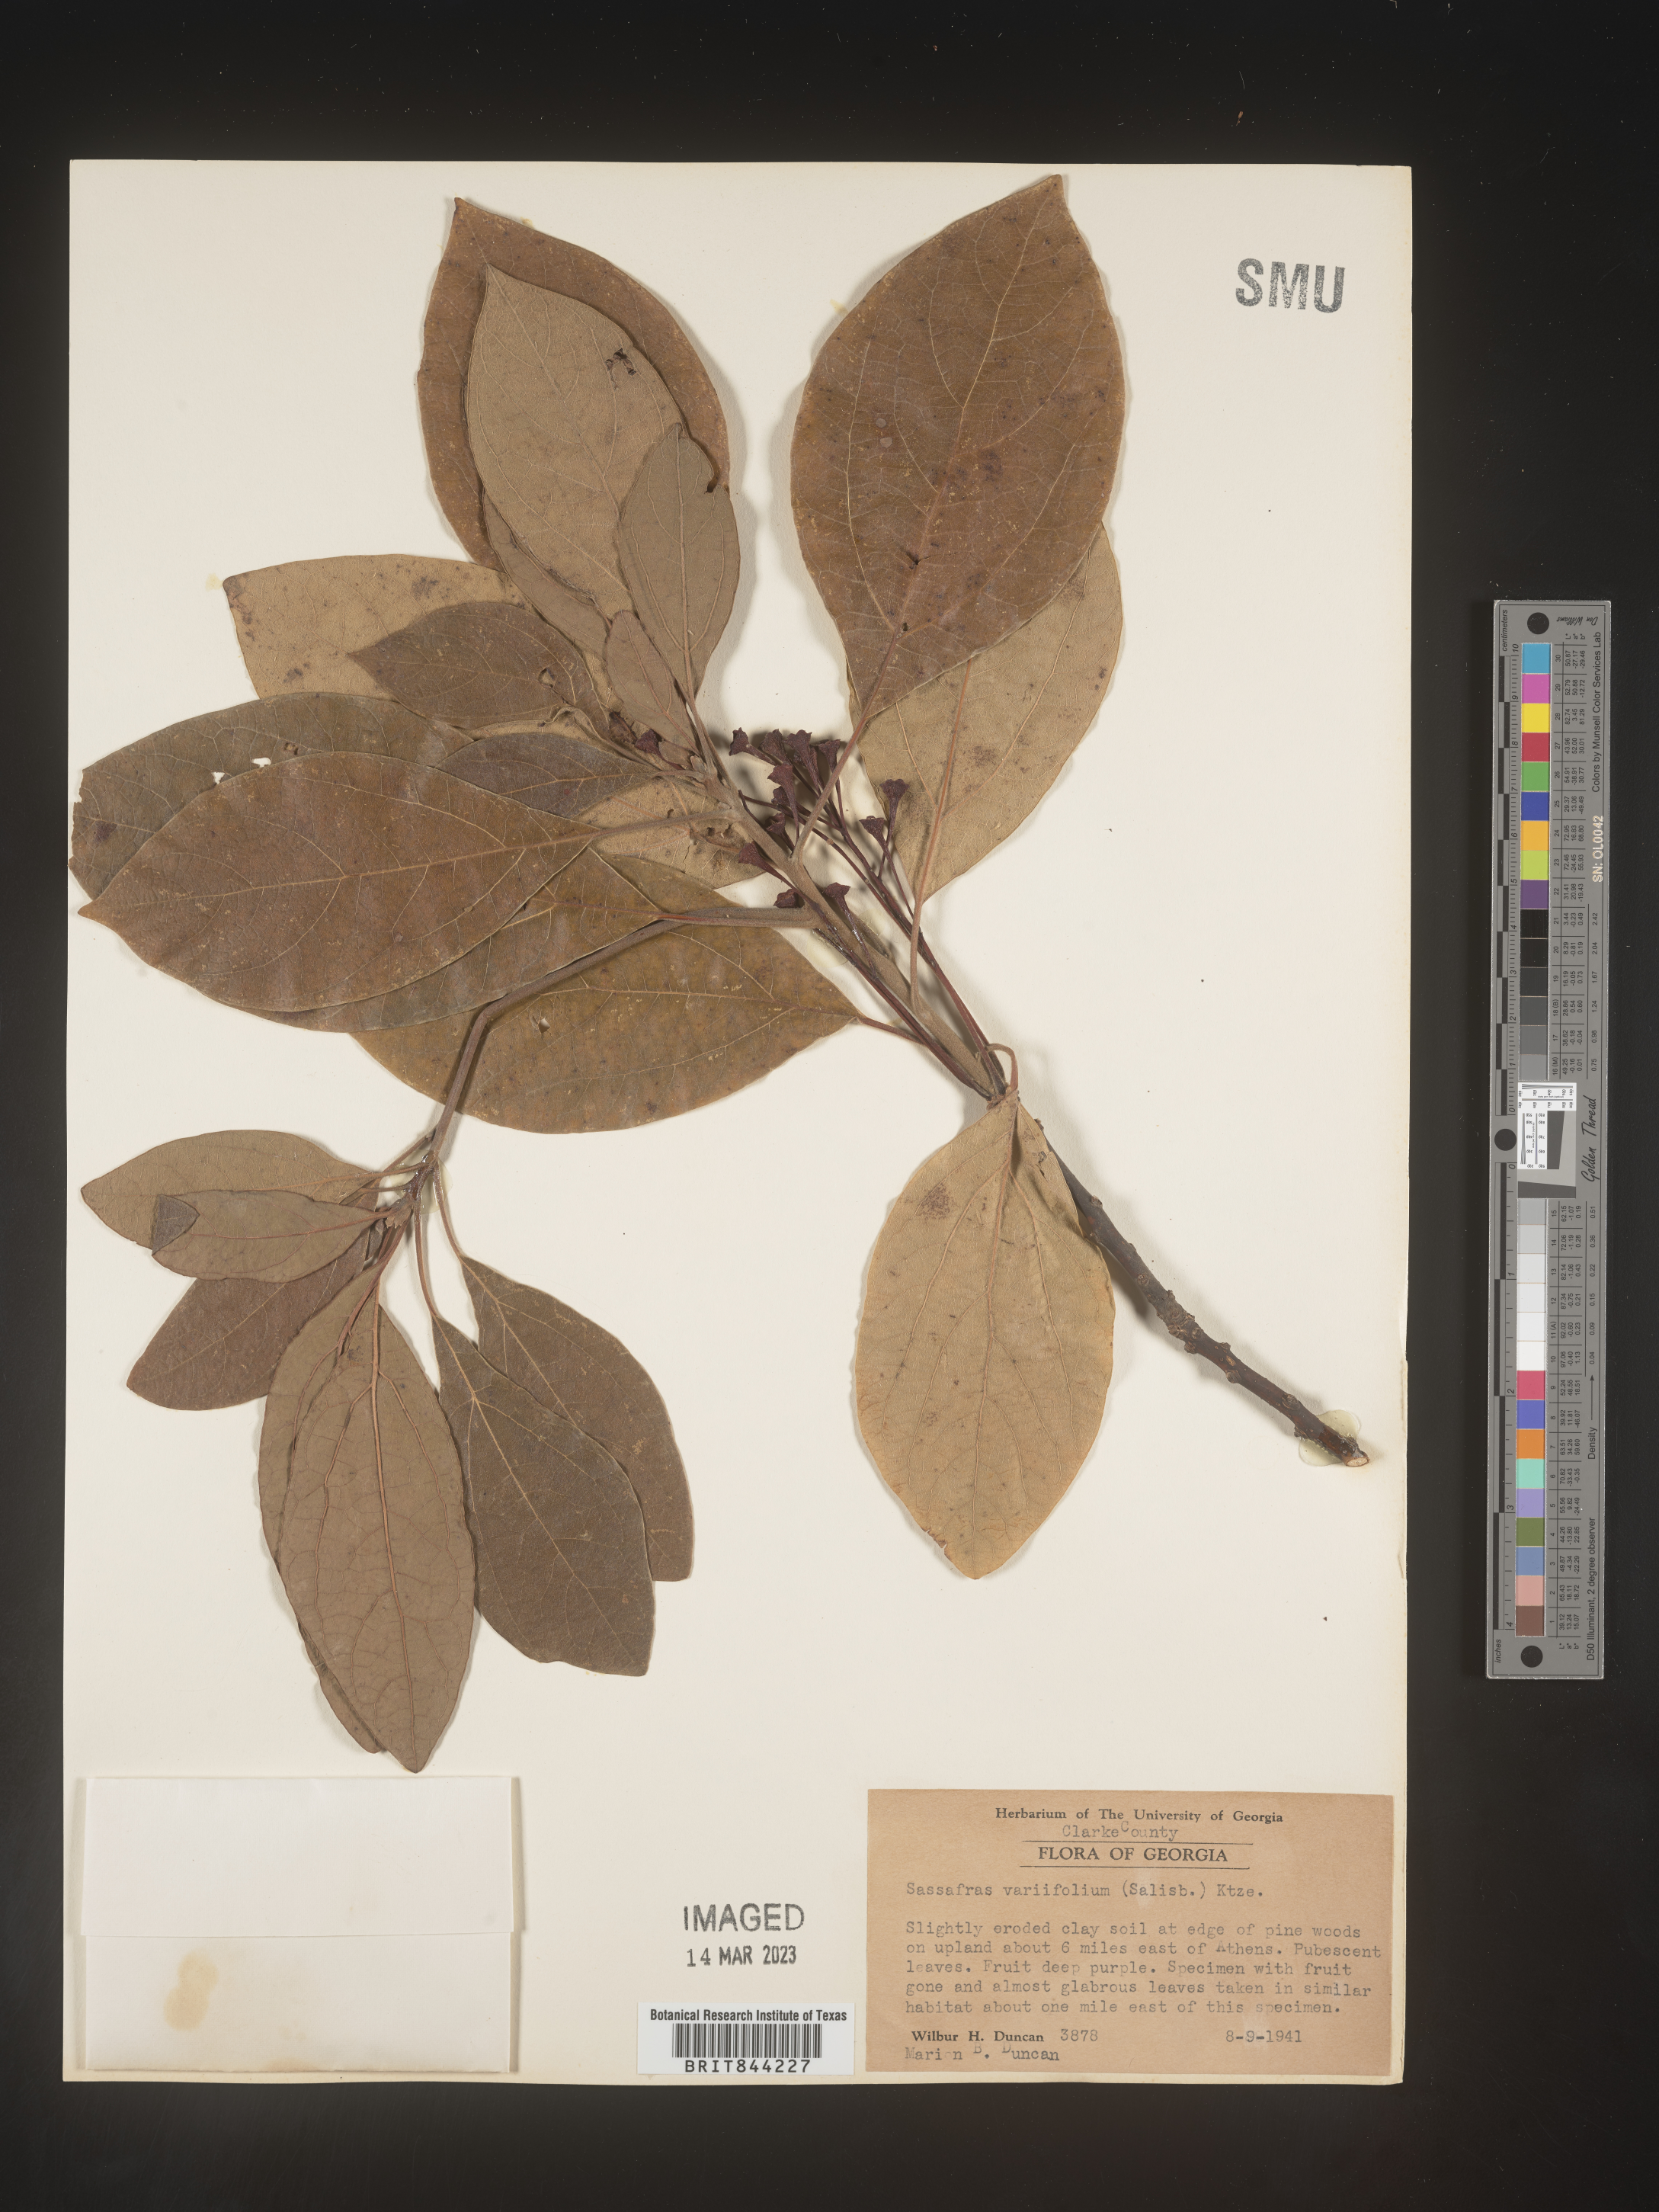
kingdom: Plantae
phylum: Tracheophyta
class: Magnoliopsida
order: Laurales
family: Lauraceae
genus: Sassafras
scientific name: Sassafras albidum
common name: Sassafras
